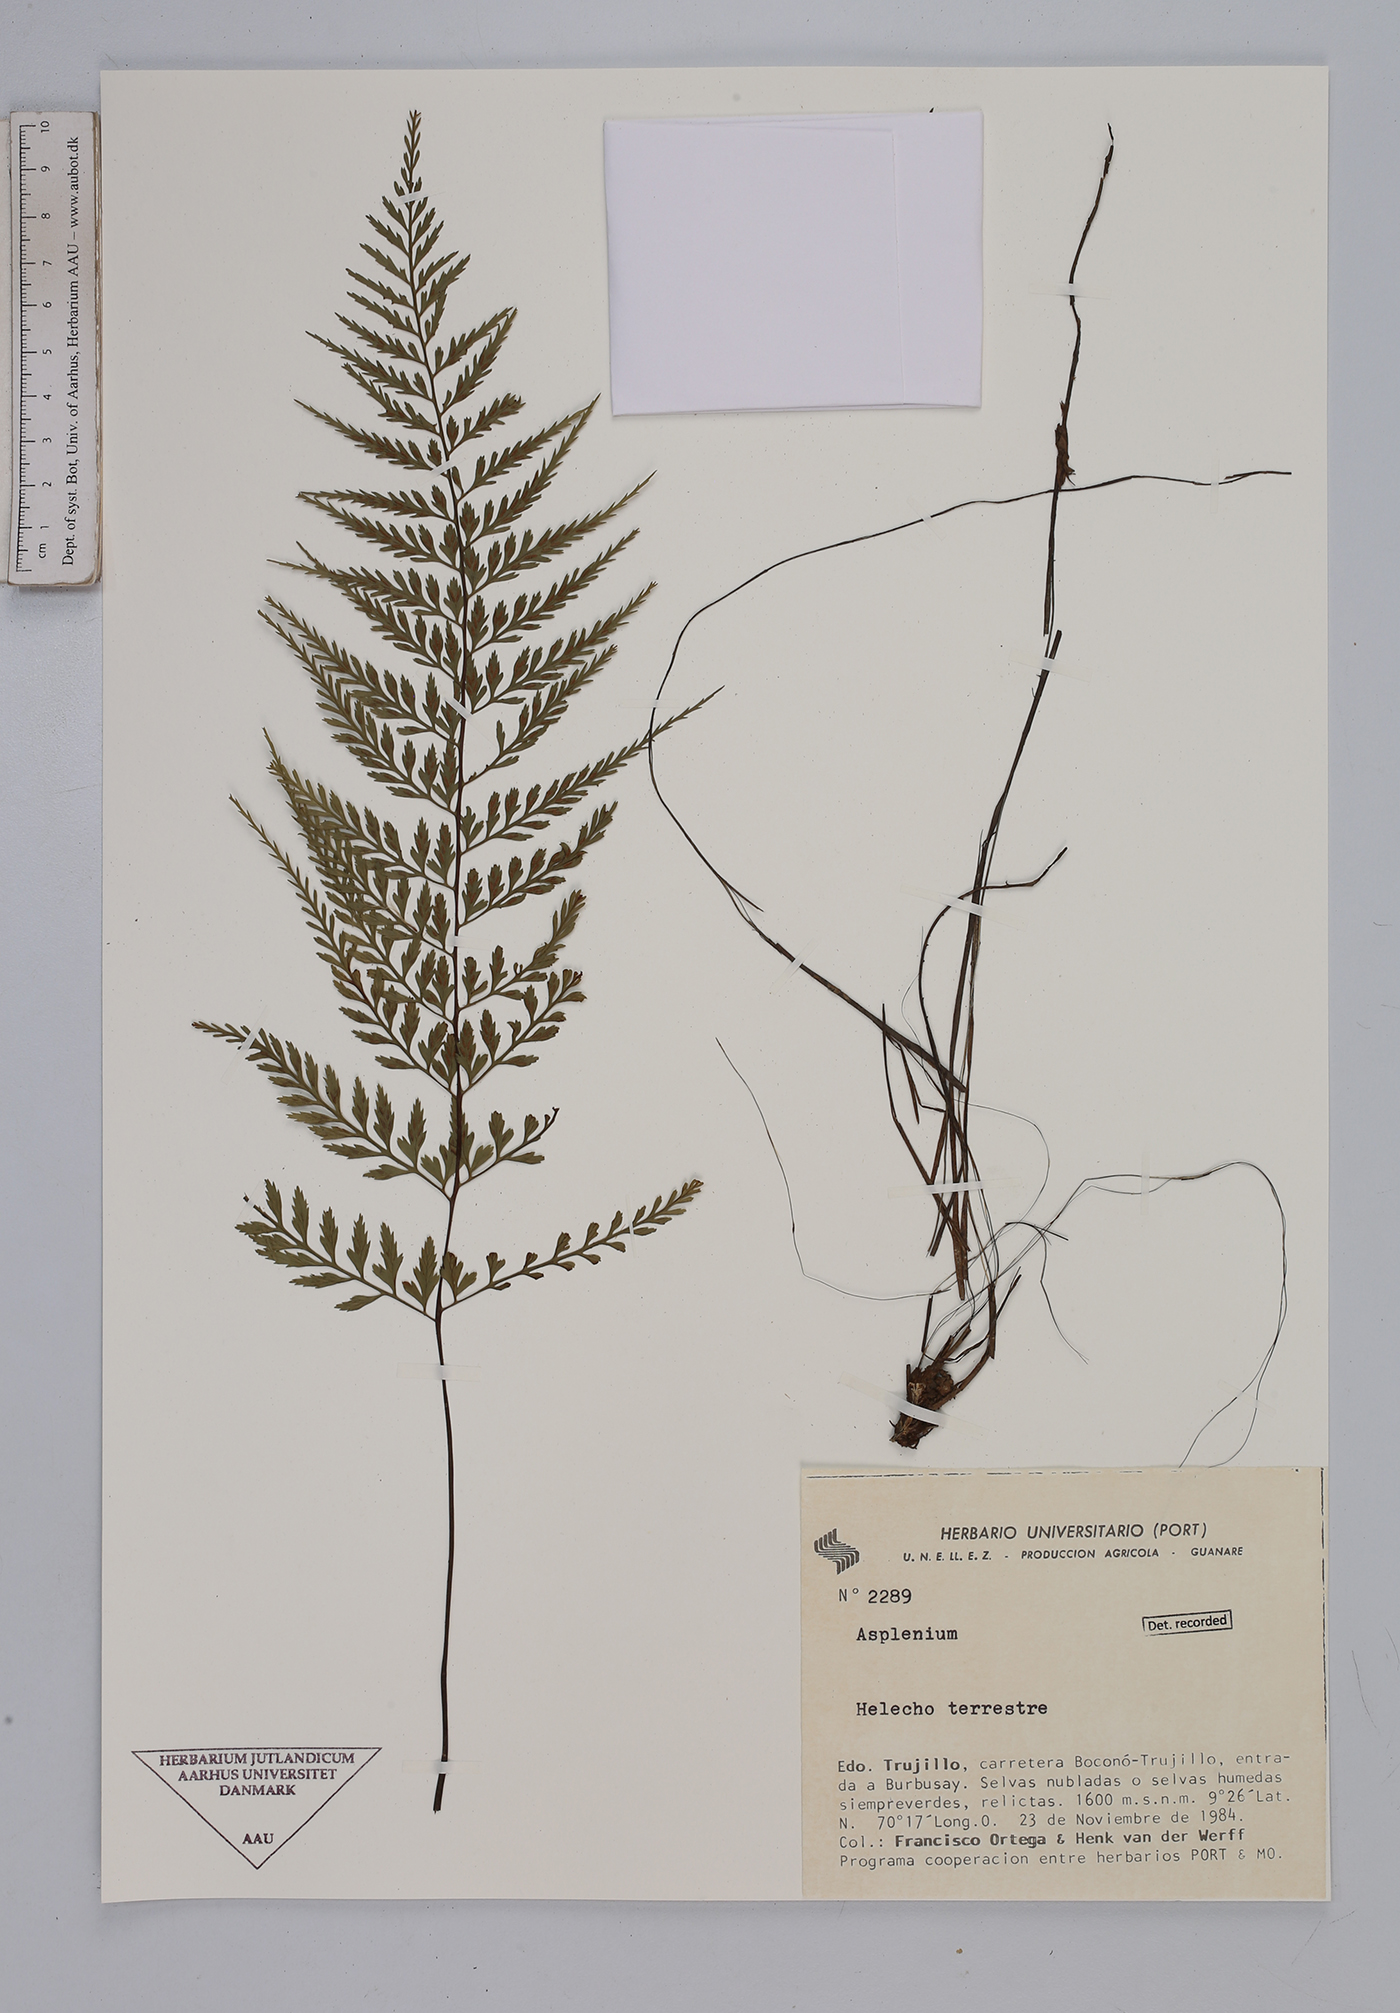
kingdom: Plantae
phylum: Tracheophyta
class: Polypodiopsida
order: Polypodiales
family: Aspleniaceae
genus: Asplenium
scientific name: Asplenium
